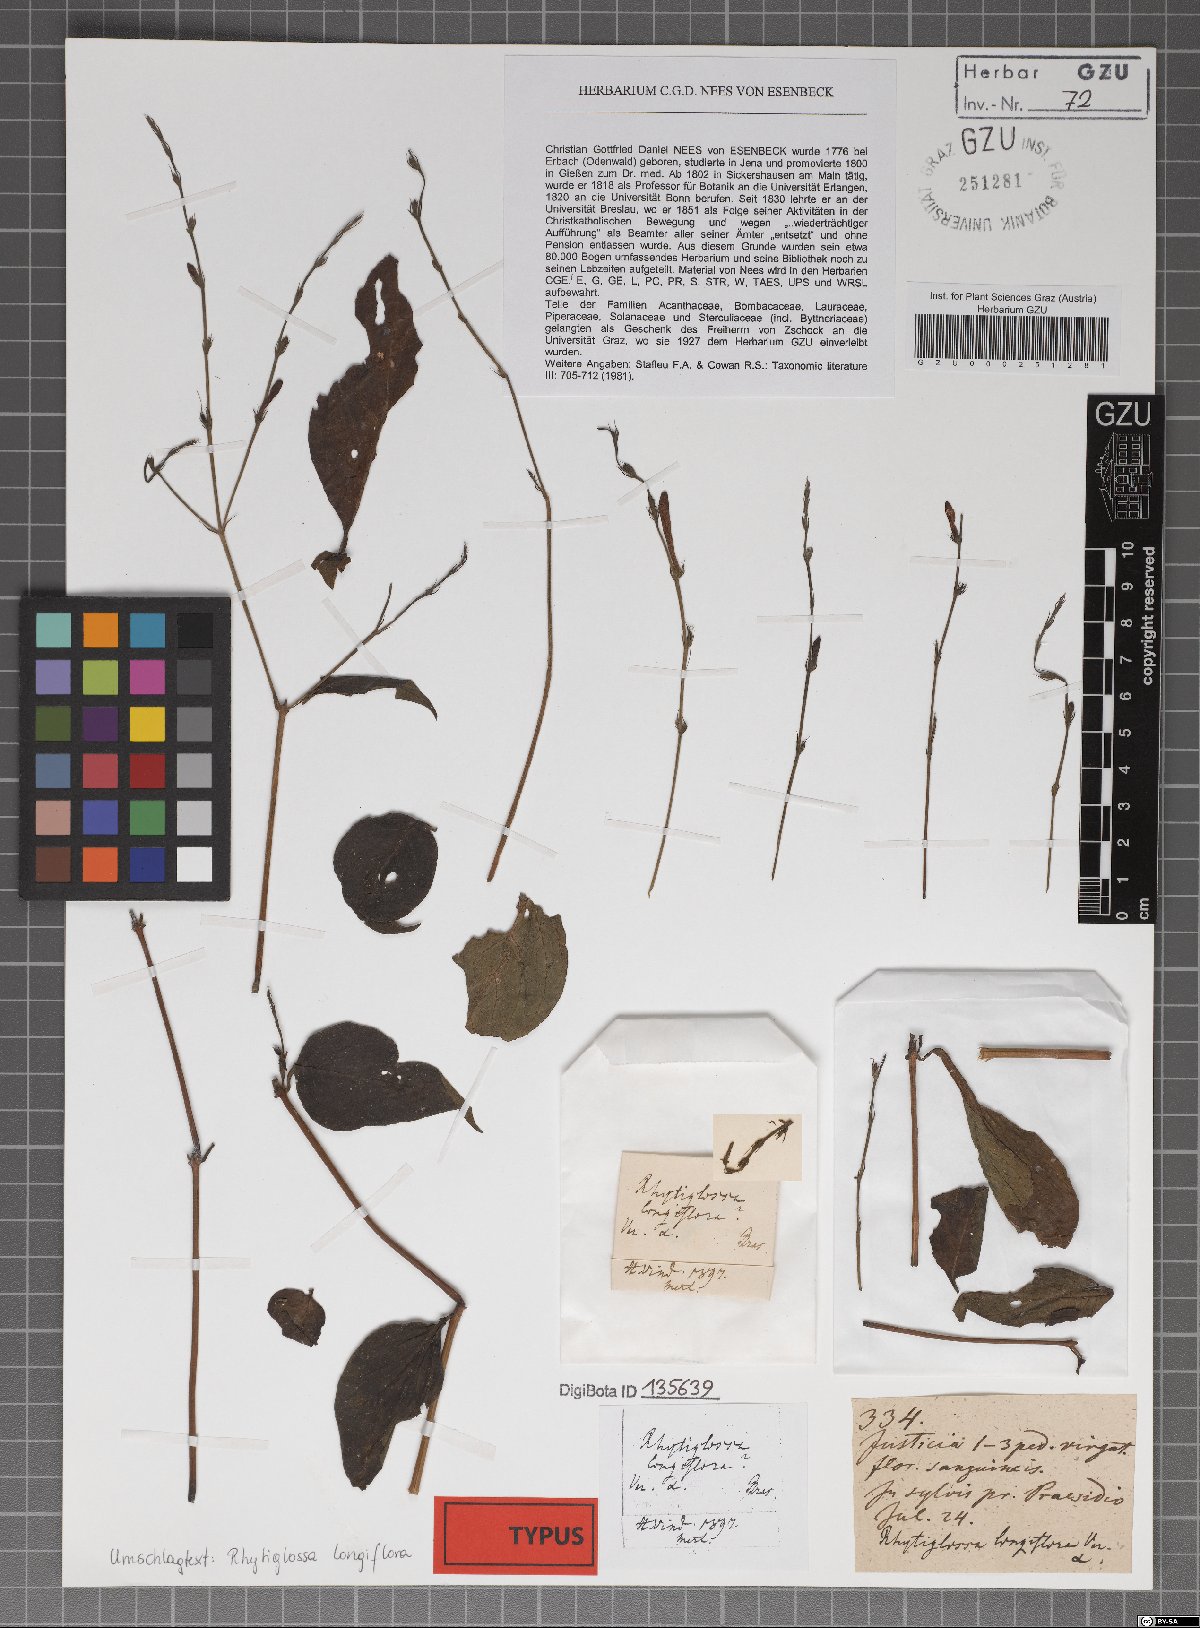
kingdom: Plantae
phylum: Tracheophyta
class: Magnoliopsida
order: Lamiales
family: Acanthaceae
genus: Dianthera
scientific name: Dianthera longiflora
